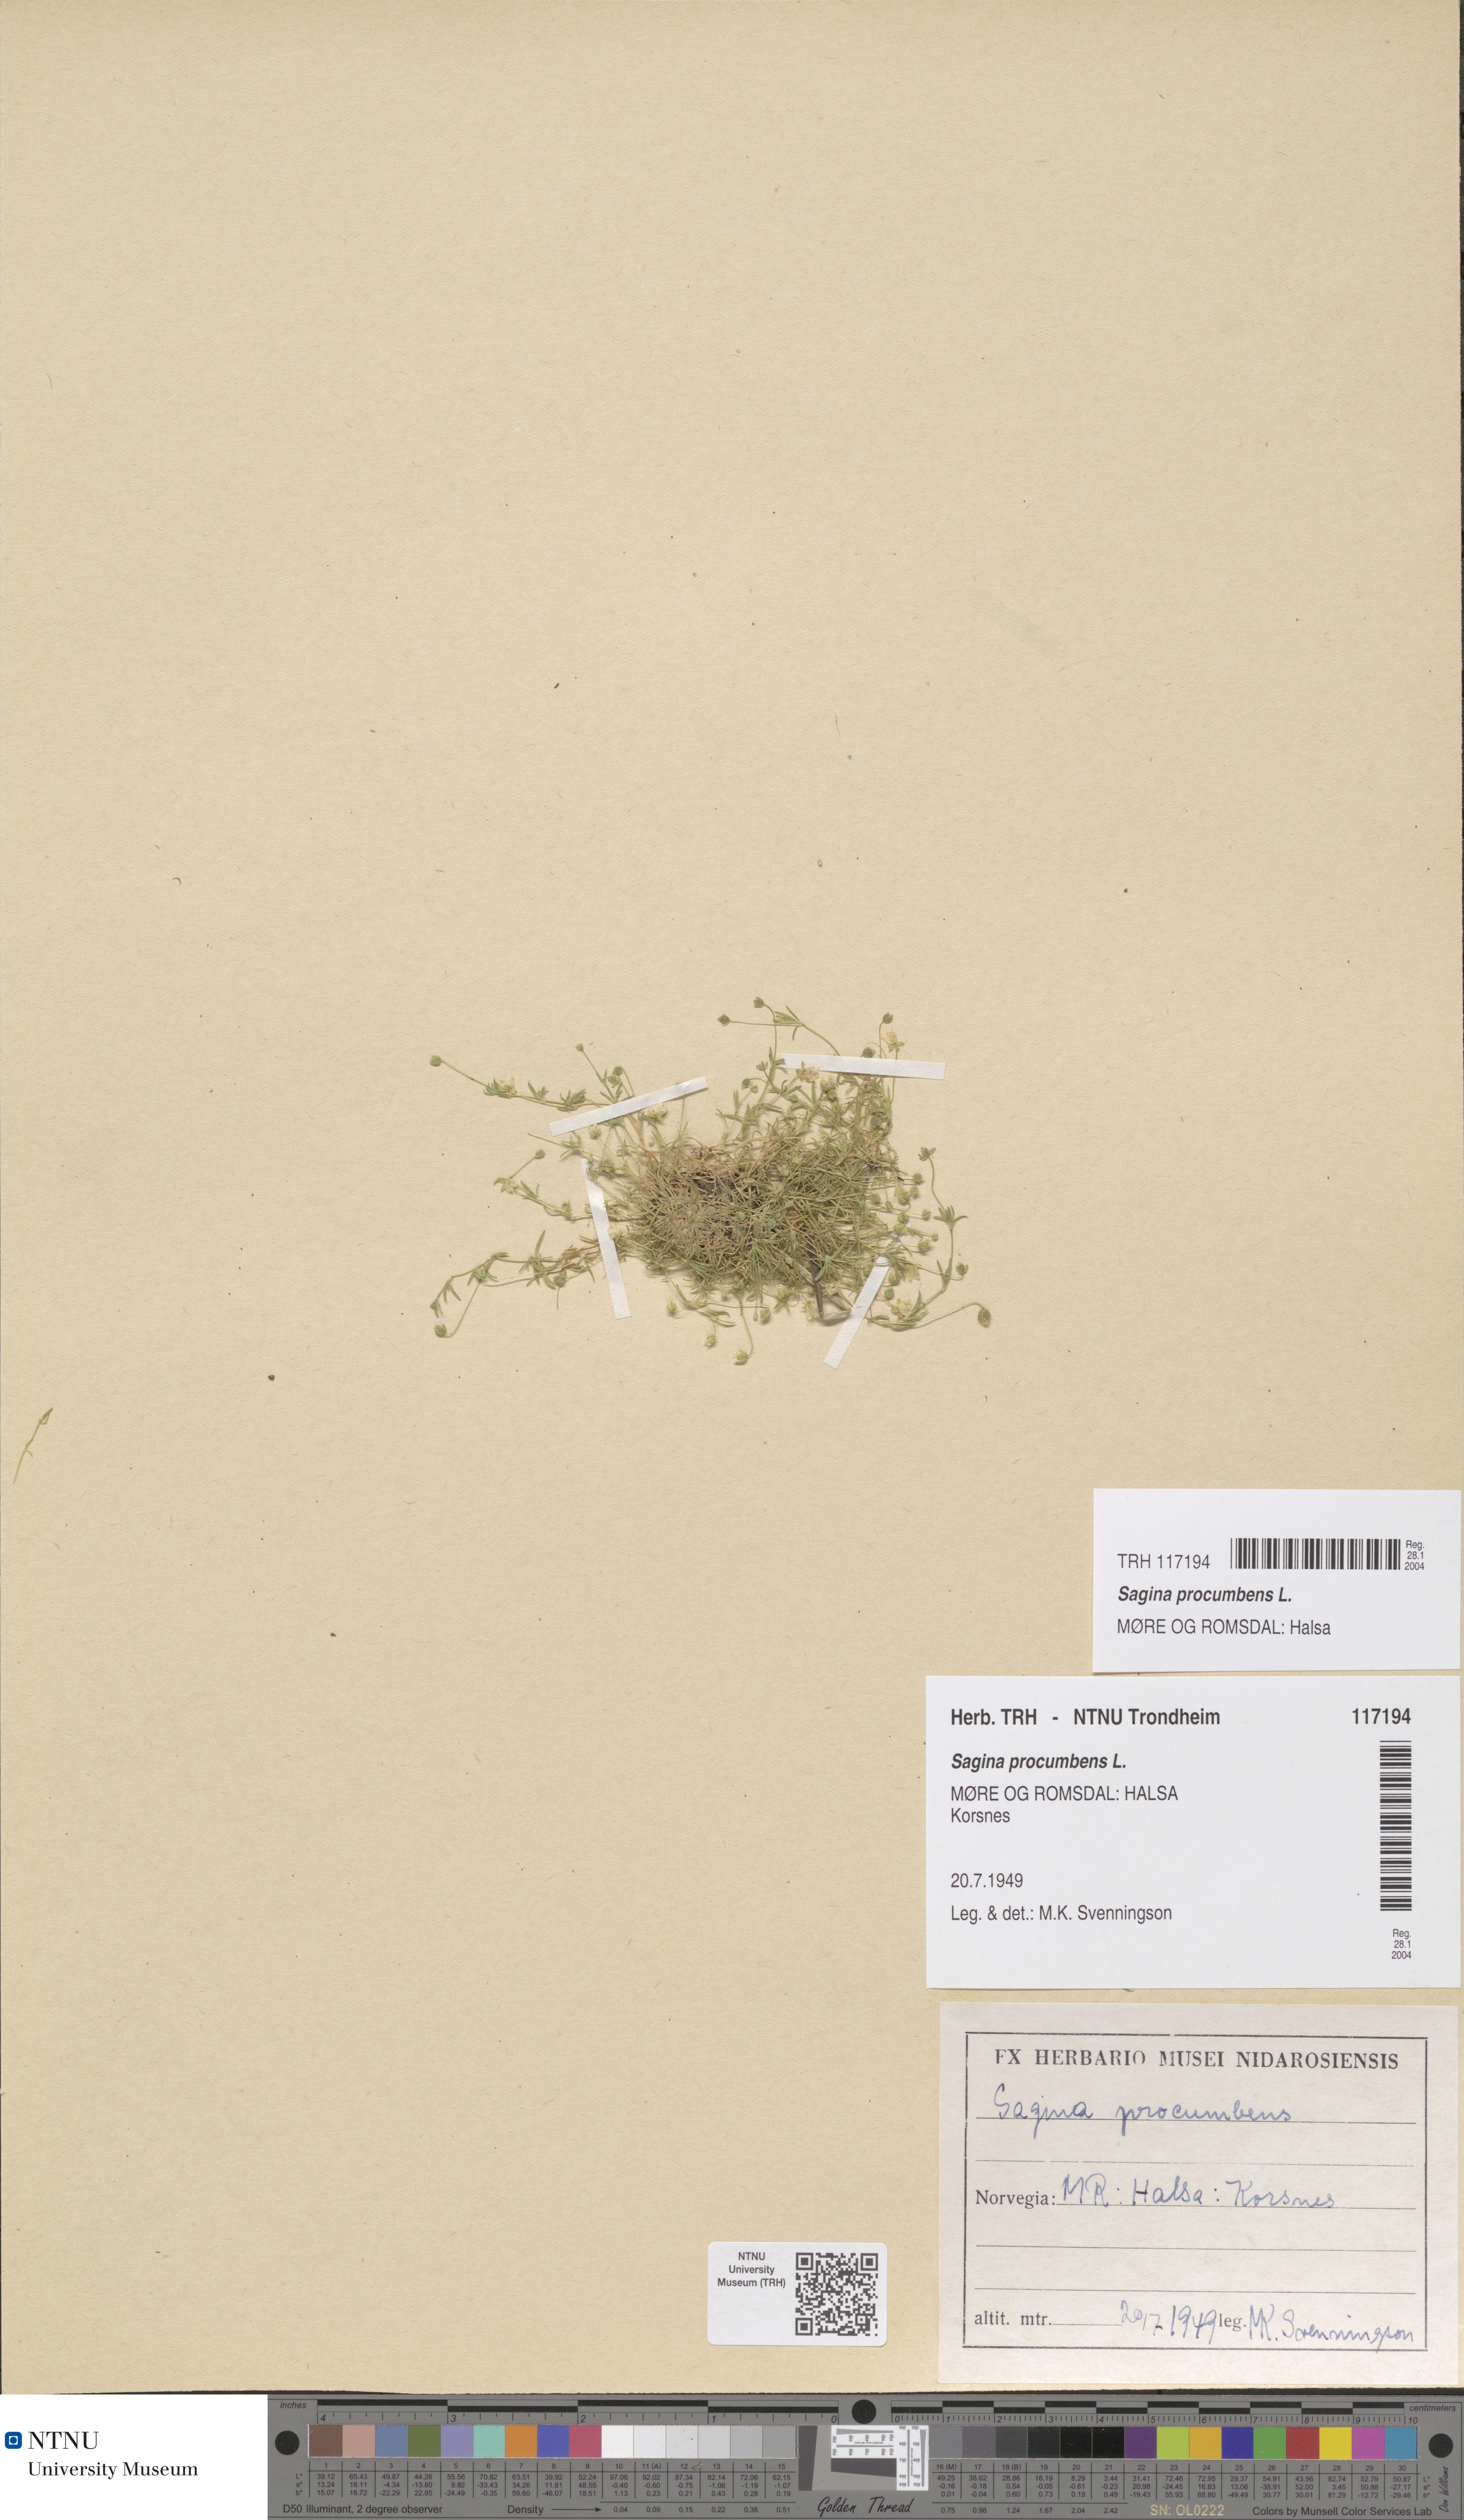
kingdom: Plantae
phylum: Tracheophyta
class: Magnoliopsida
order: Caryophyllales
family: Caryophyllaceae
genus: Sagina
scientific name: Sagina procumbens
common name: Procumbent pearlwort
